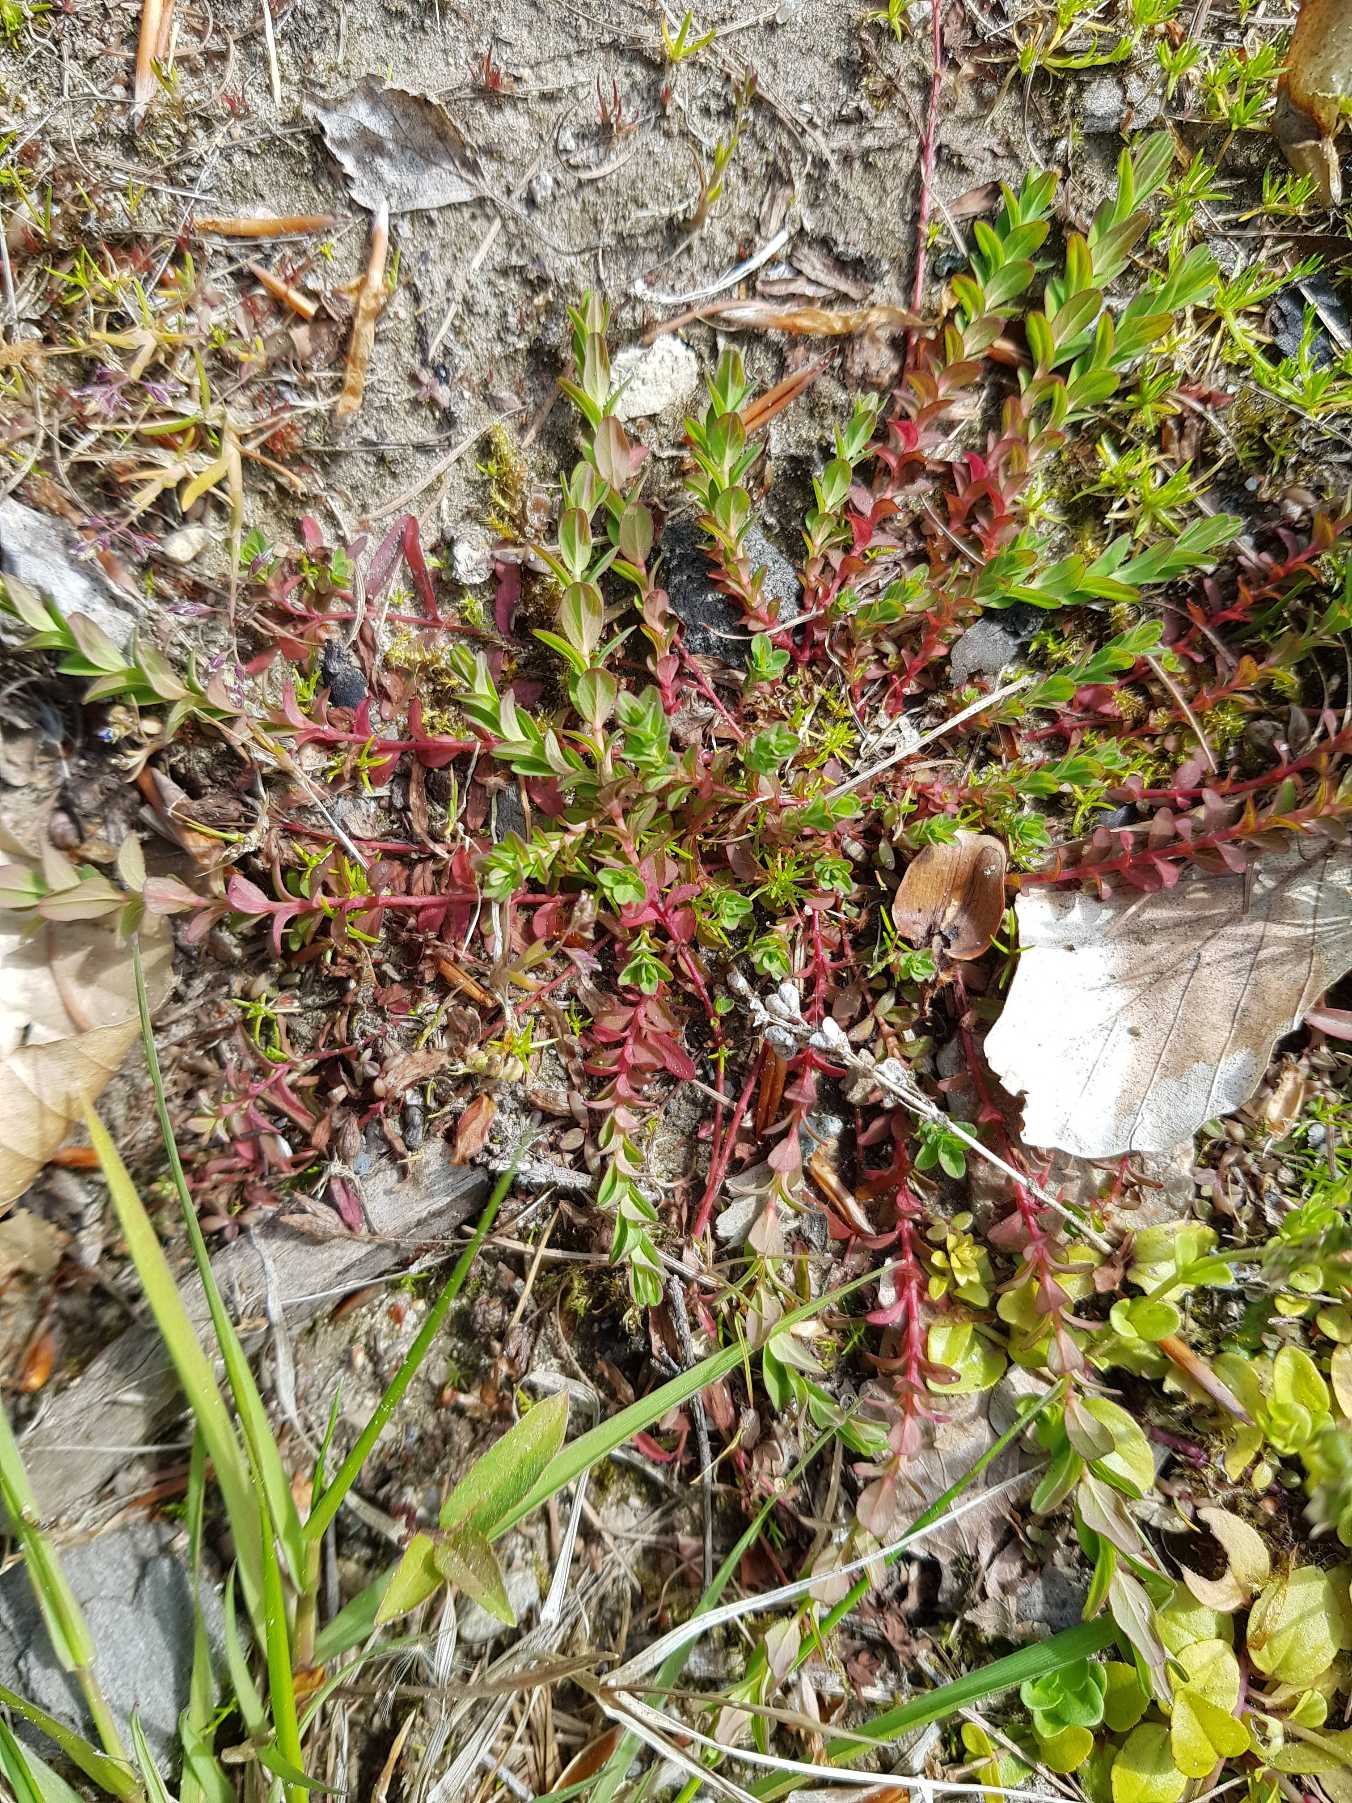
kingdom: Plantae
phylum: Tracheophyta
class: Magnoliopsida
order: Malpighiales
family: Hypericaceae
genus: Hypericum
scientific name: Hypericum humifusum
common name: Dværg-perikon
